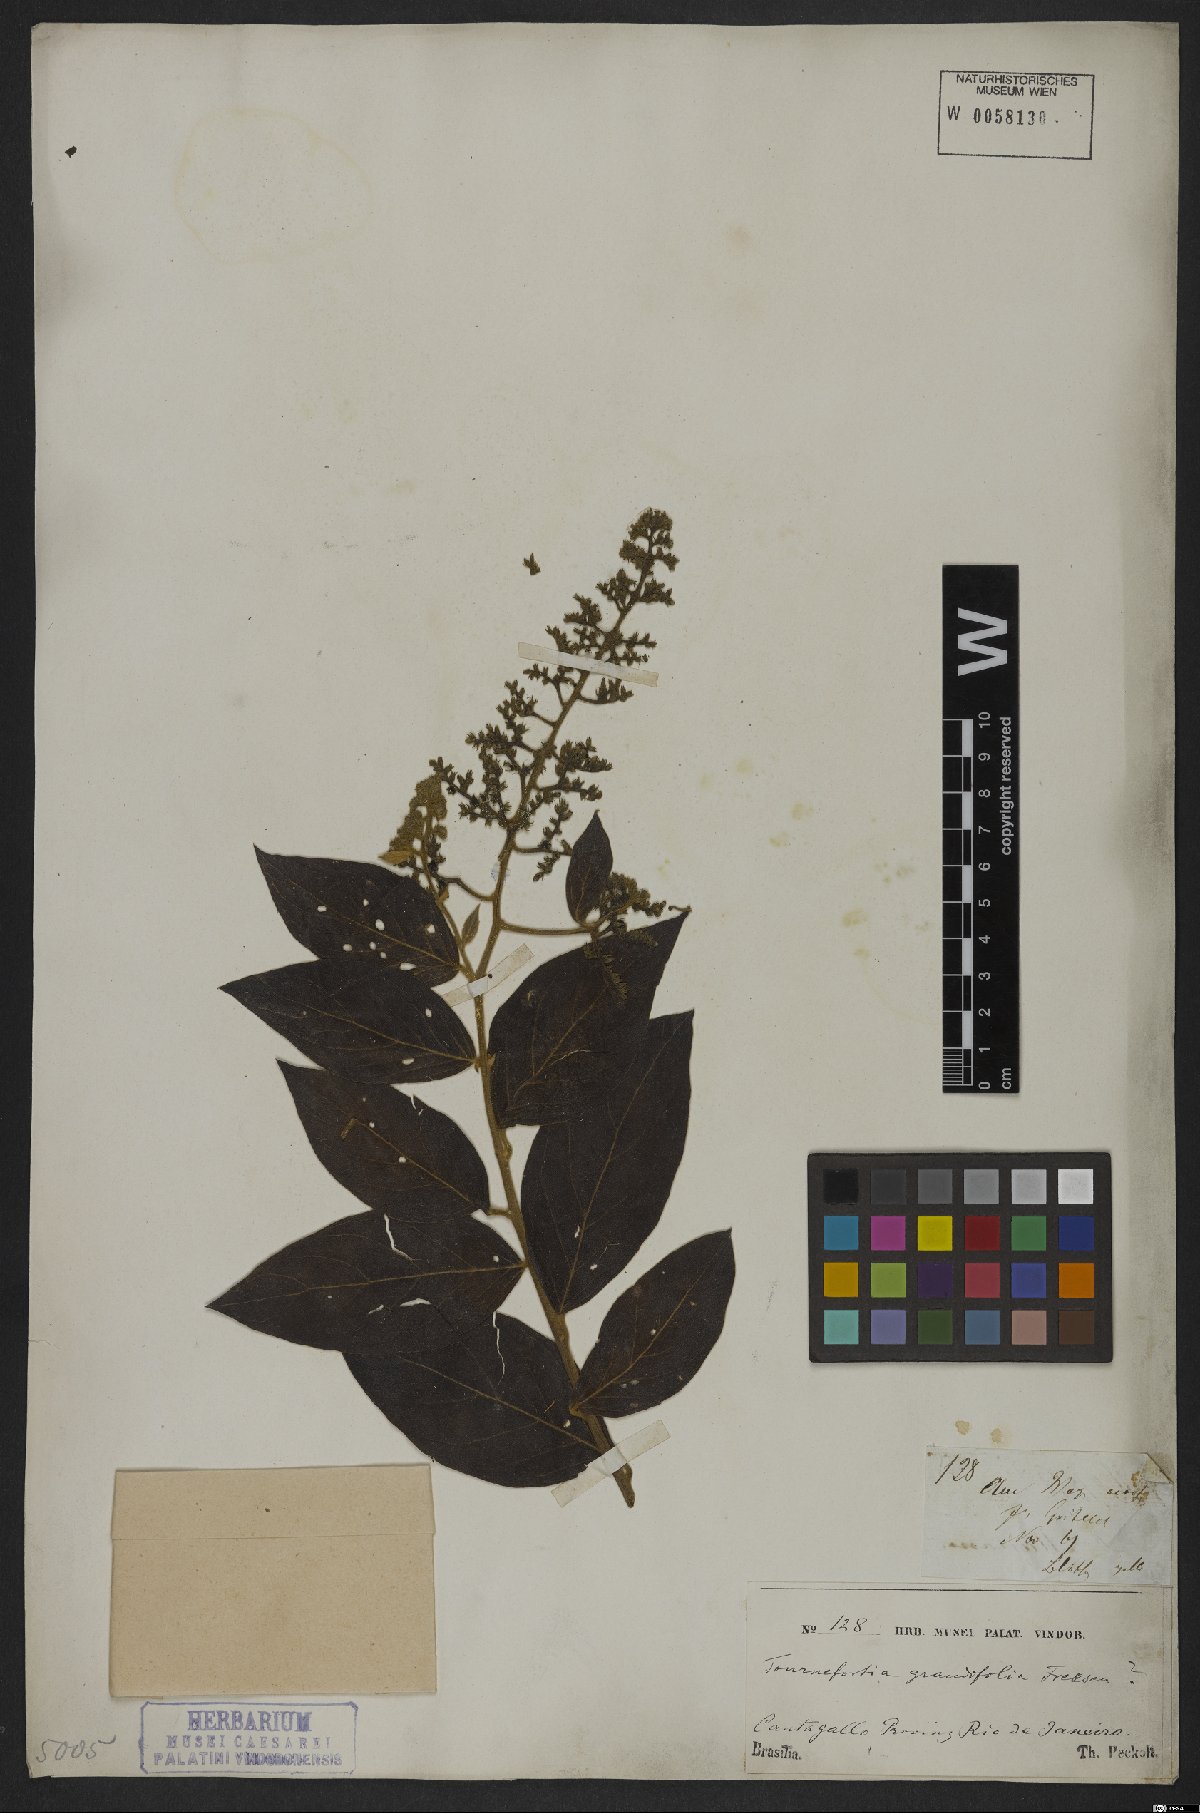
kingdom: Plantae
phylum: Tracheophyta
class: Magnoliopsida
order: Boraginales
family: Heliotropiaceae
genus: Tournefortia
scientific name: Tournefortia
